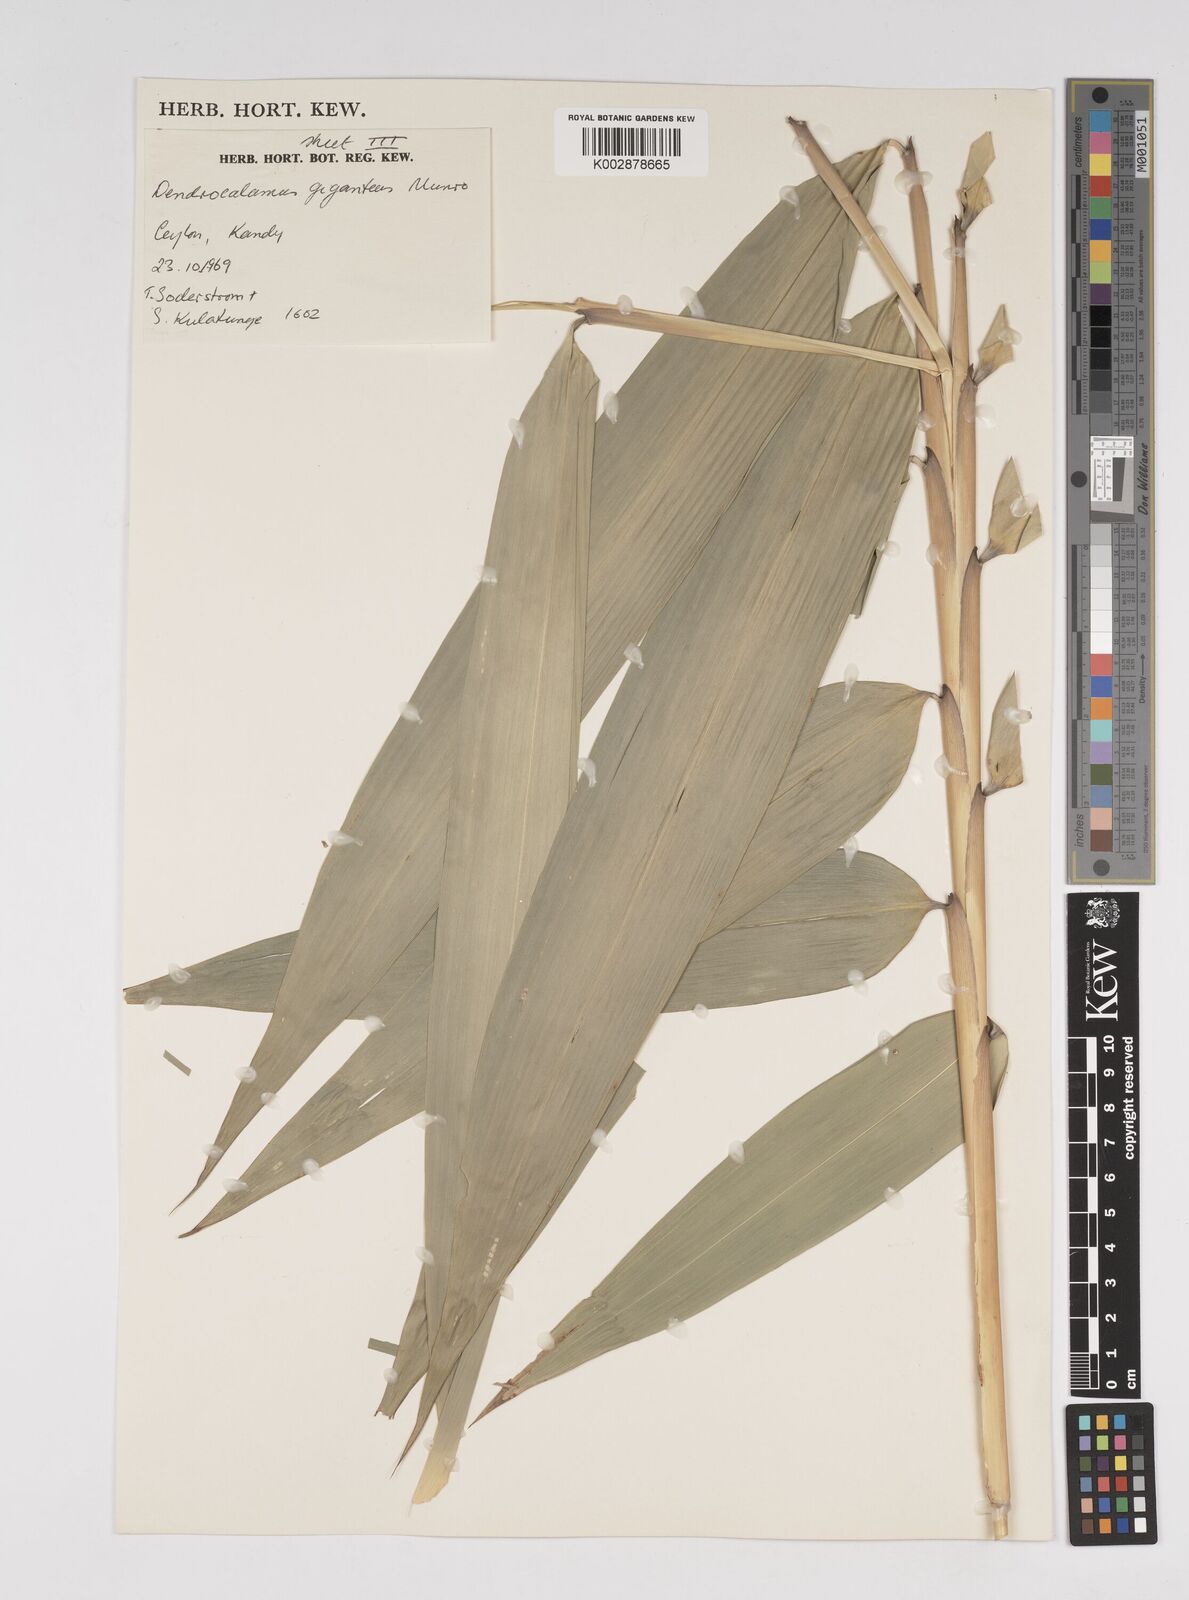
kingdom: Plantae
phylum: Tracheophyta
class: Liliopsida
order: Poales
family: Poaceae
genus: Dendrocalamus
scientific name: Dendrocalamus giganteus
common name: Giant bamboo
